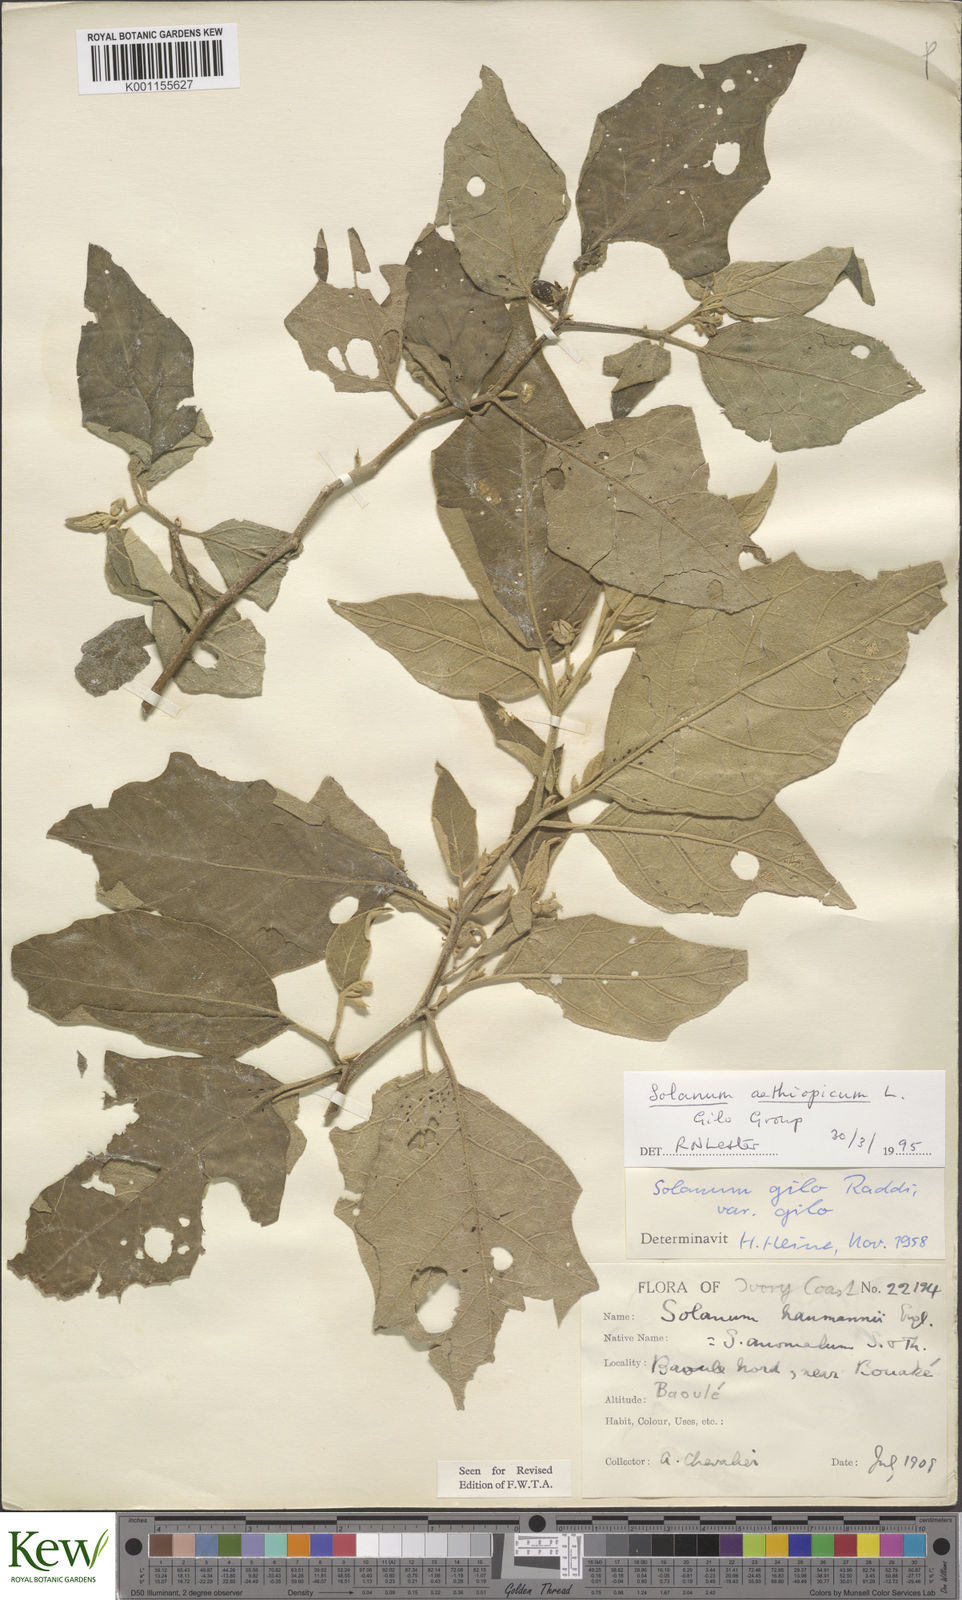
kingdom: Plantae
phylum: Tracheophyta
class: Magnoliopsida
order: Solanales
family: Solanaceae
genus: Solanum
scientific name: Solanum aethiopicum
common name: Gilo
